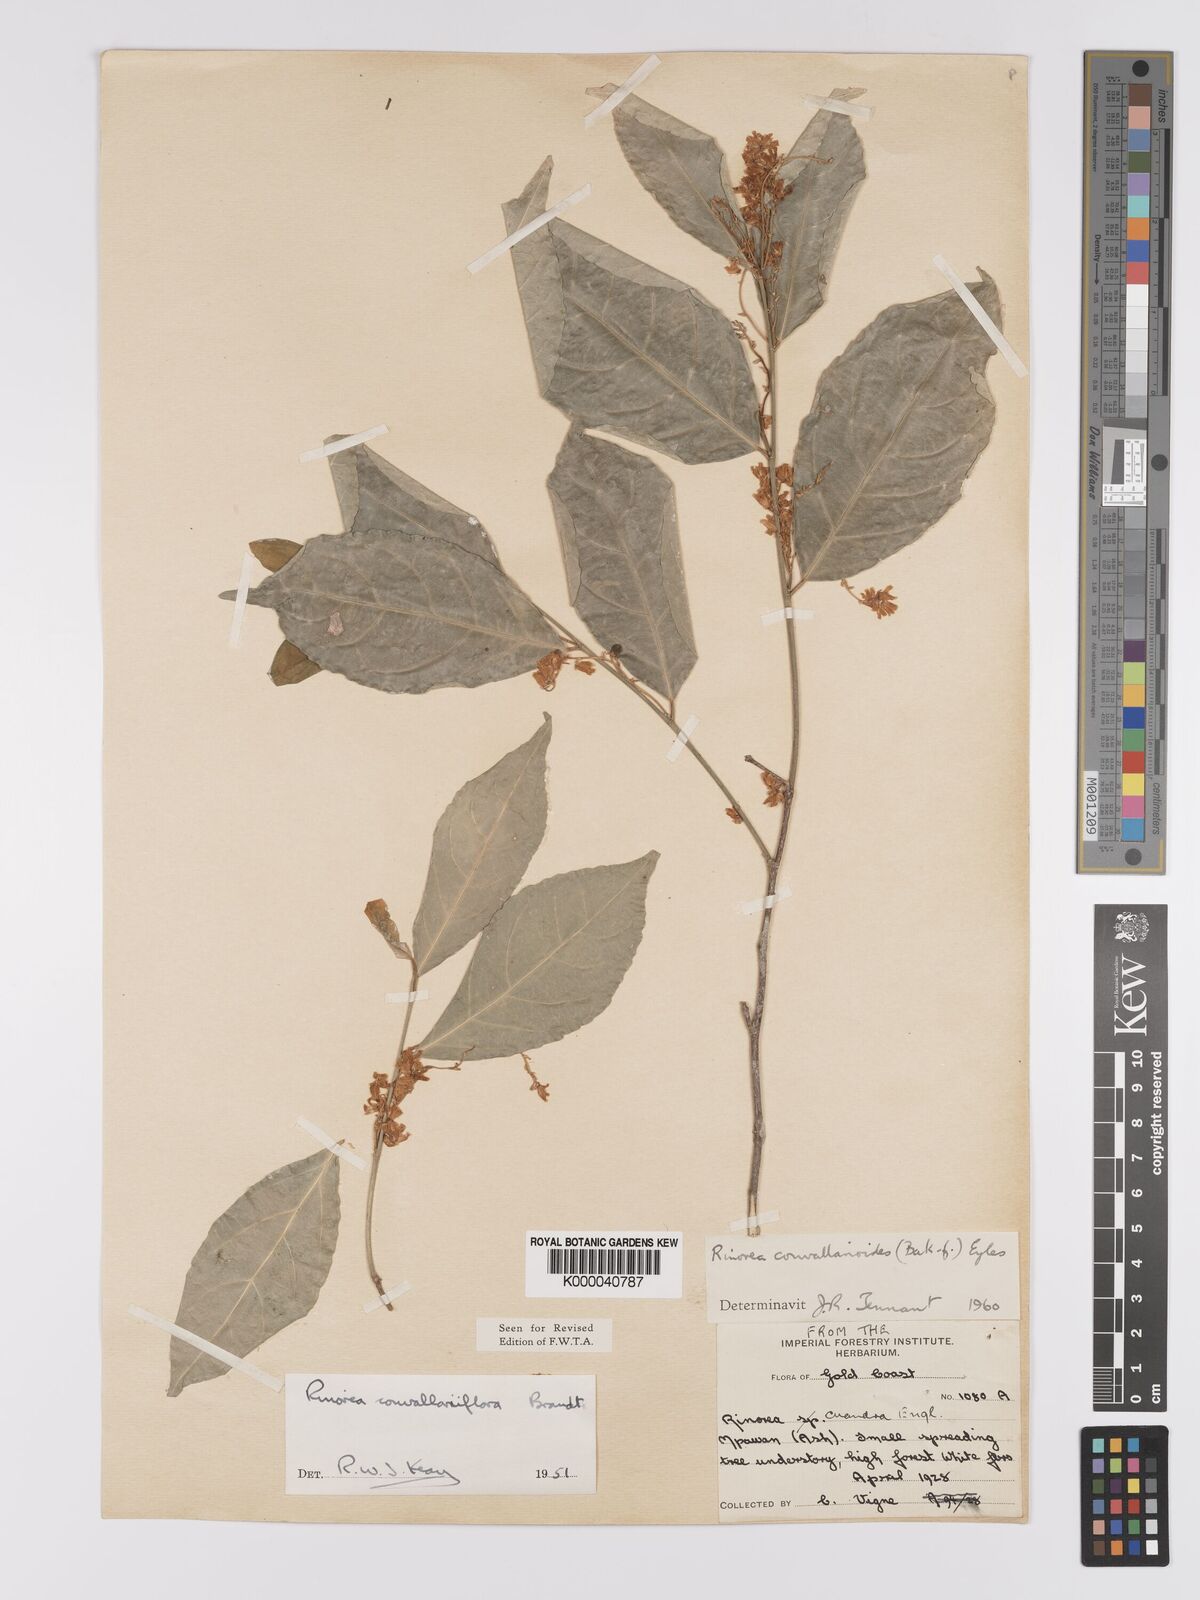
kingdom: Plantae
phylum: Tracheophyta
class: Magnoliopsida
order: Malpighiales
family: Violaceae
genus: Rinorea
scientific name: Rinorea convallarioides
